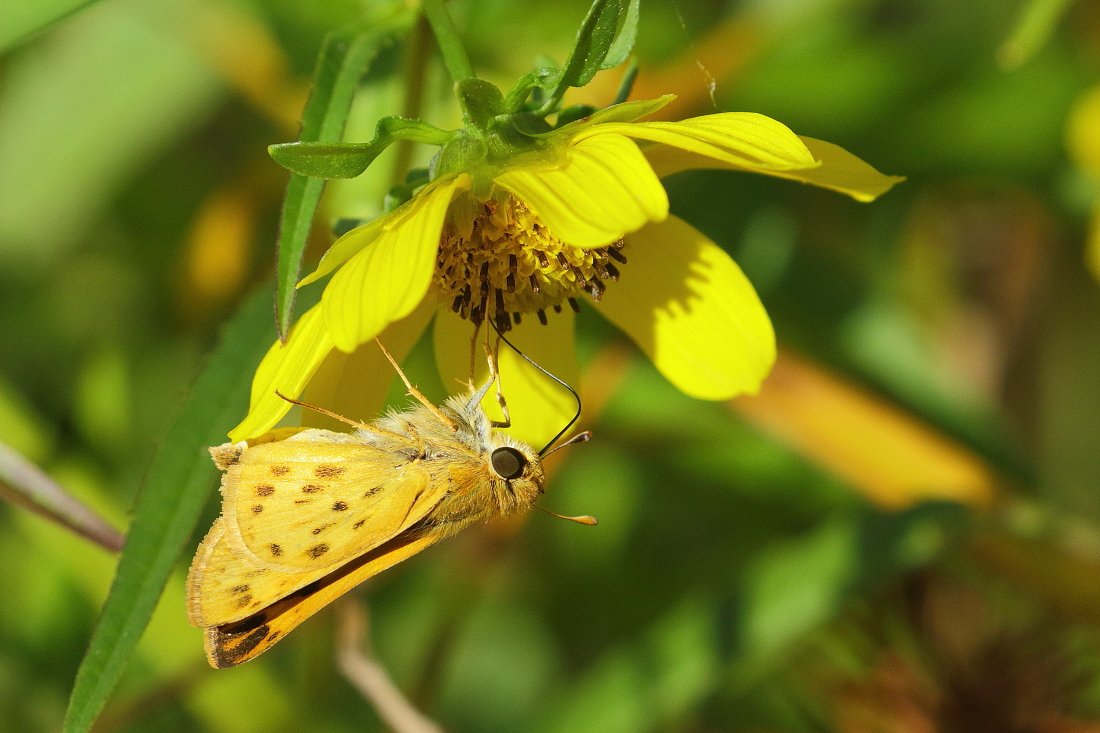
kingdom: Animalia
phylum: Arthropoda
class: Insecta
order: Lepidoptera
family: Hesperiidae
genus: Hylephila
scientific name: Hylephila phyleus
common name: Fiery Skipper
